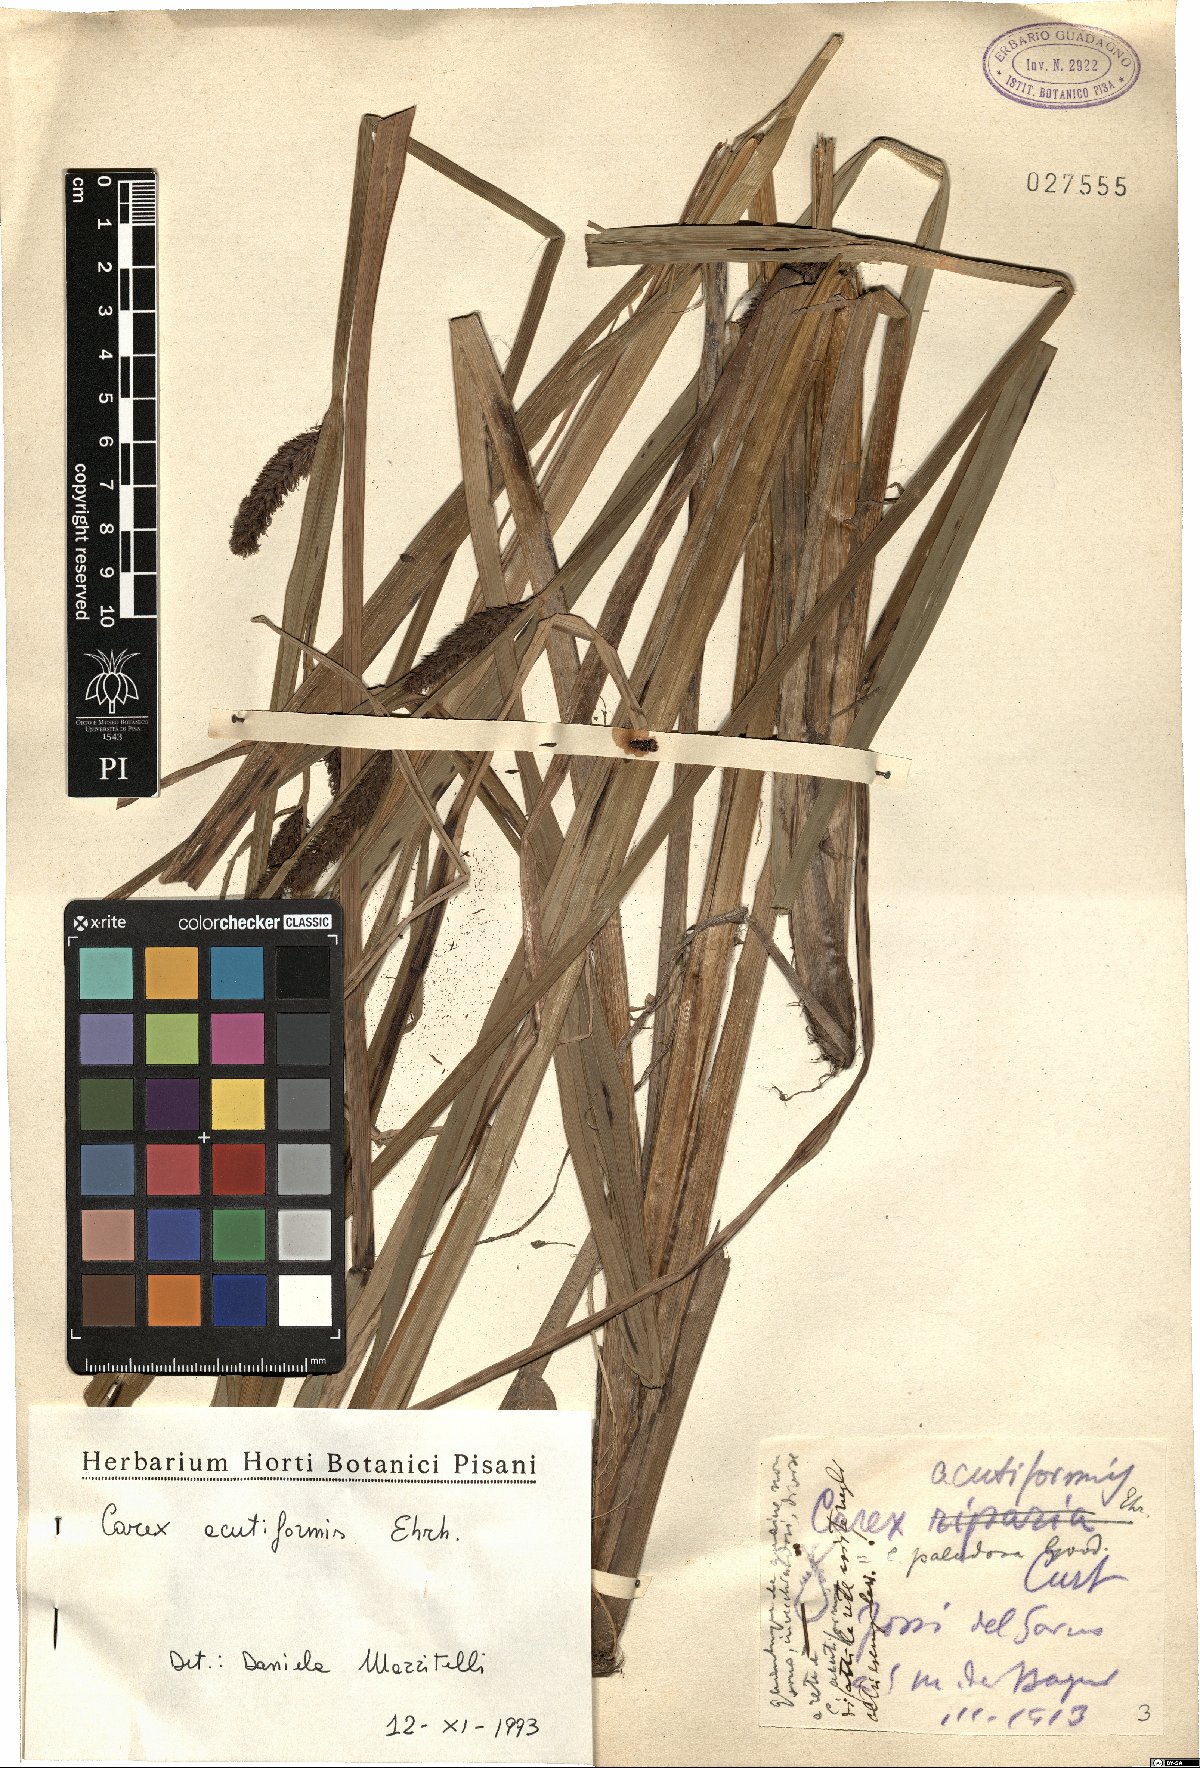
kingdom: Plantae
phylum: Tracheophyta
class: Liliopsida
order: Poales
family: Cyperaceae
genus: Carex
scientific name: Carex acutiformis
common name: Lesser pond-sedge
